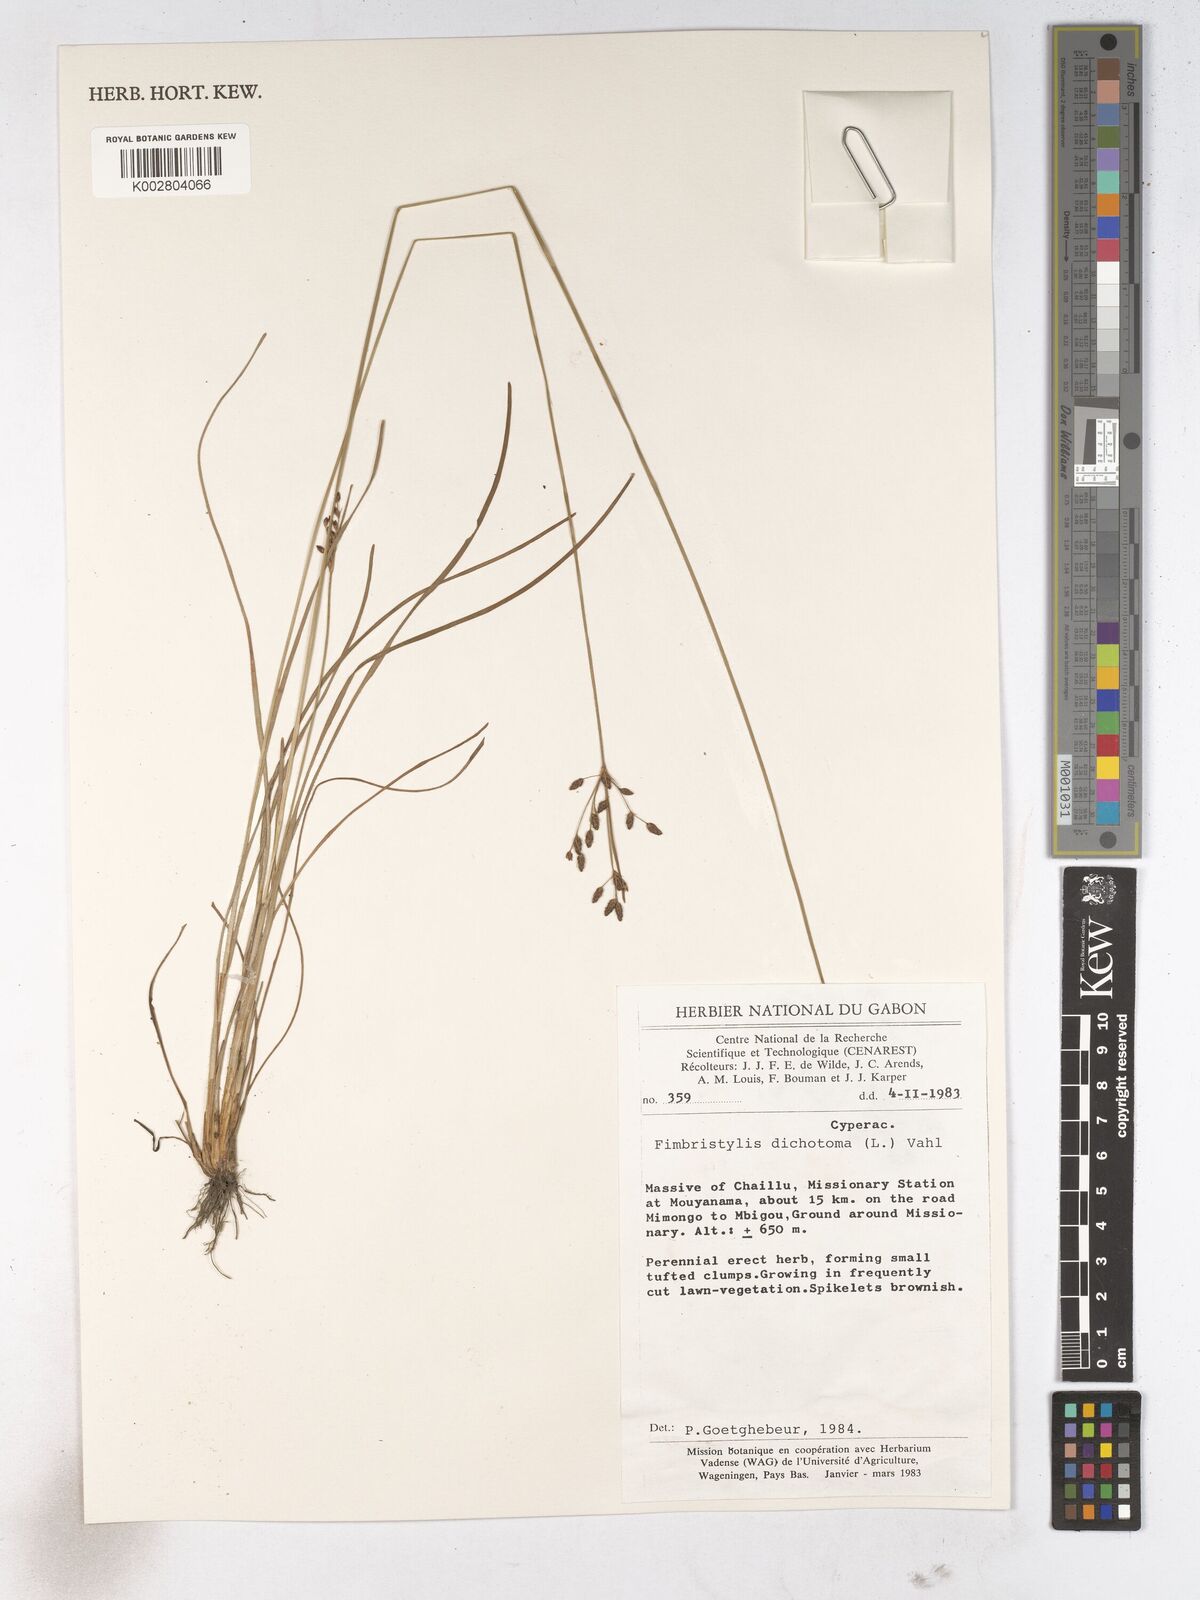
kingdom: Plantae
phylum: Tracheophyta
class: Liliopsida
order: Poales
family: Cyperaceae
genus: Fimbristylis
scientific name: Fimbristylis dichotoma
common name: Forked fimbry
